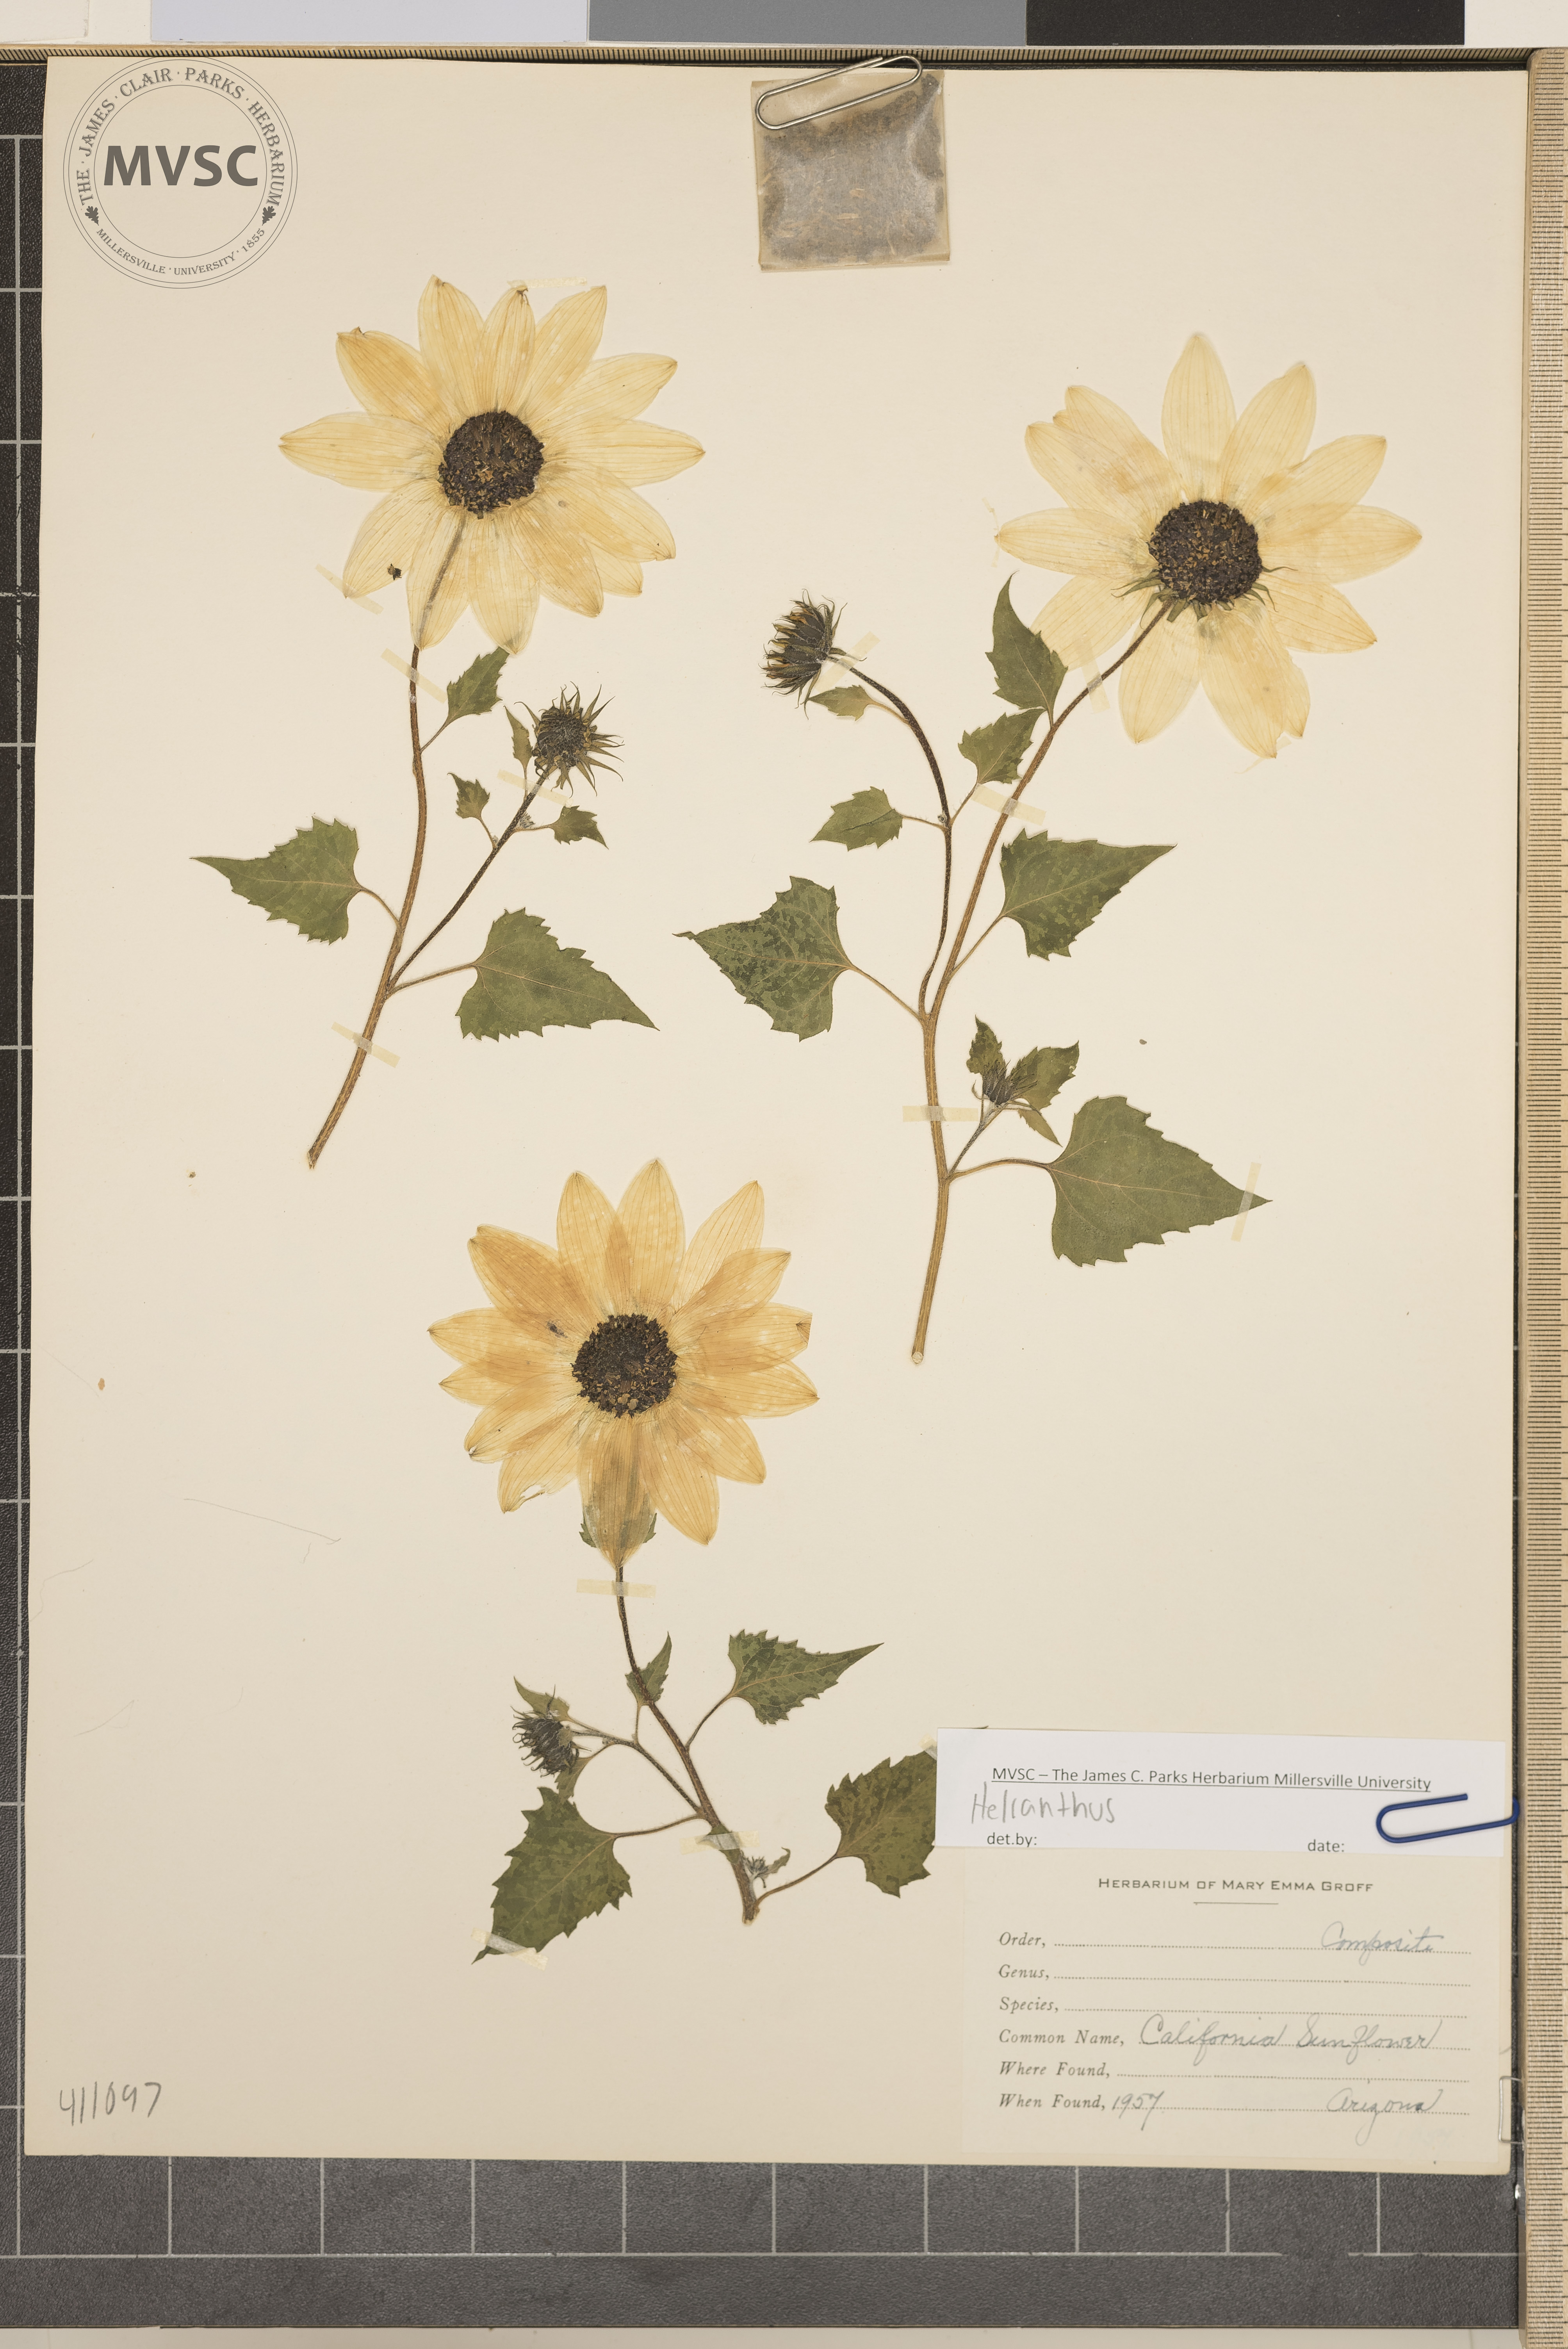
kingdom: Plantae
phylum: Tracheophyta
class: Magnoliopsida
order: Asterales
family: Asteraceae
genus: Helianthus
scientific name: Helianthus
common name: California sunflower
